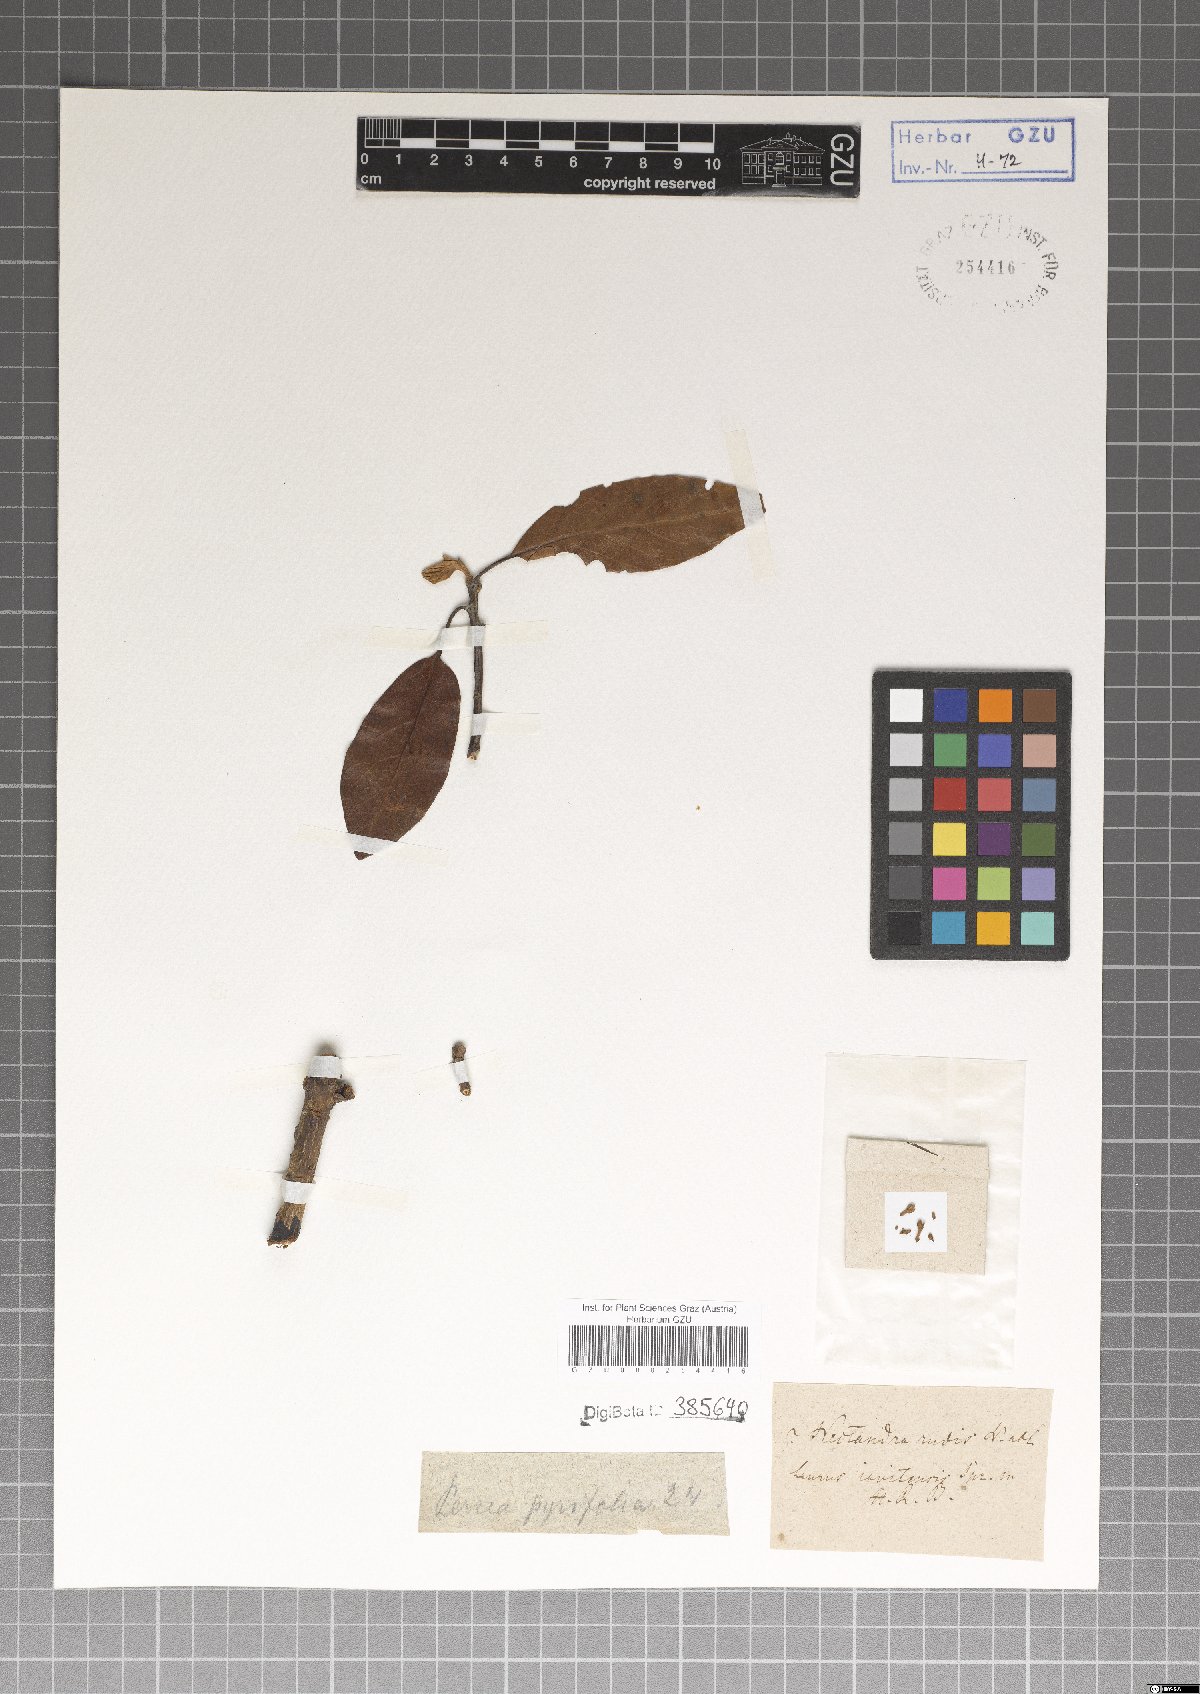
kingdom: Plantae
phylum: Tracheophyta
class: Magnoliopsida
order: Laurales
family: Lauraceae
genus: Persea
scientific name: Persea pyrifolia
